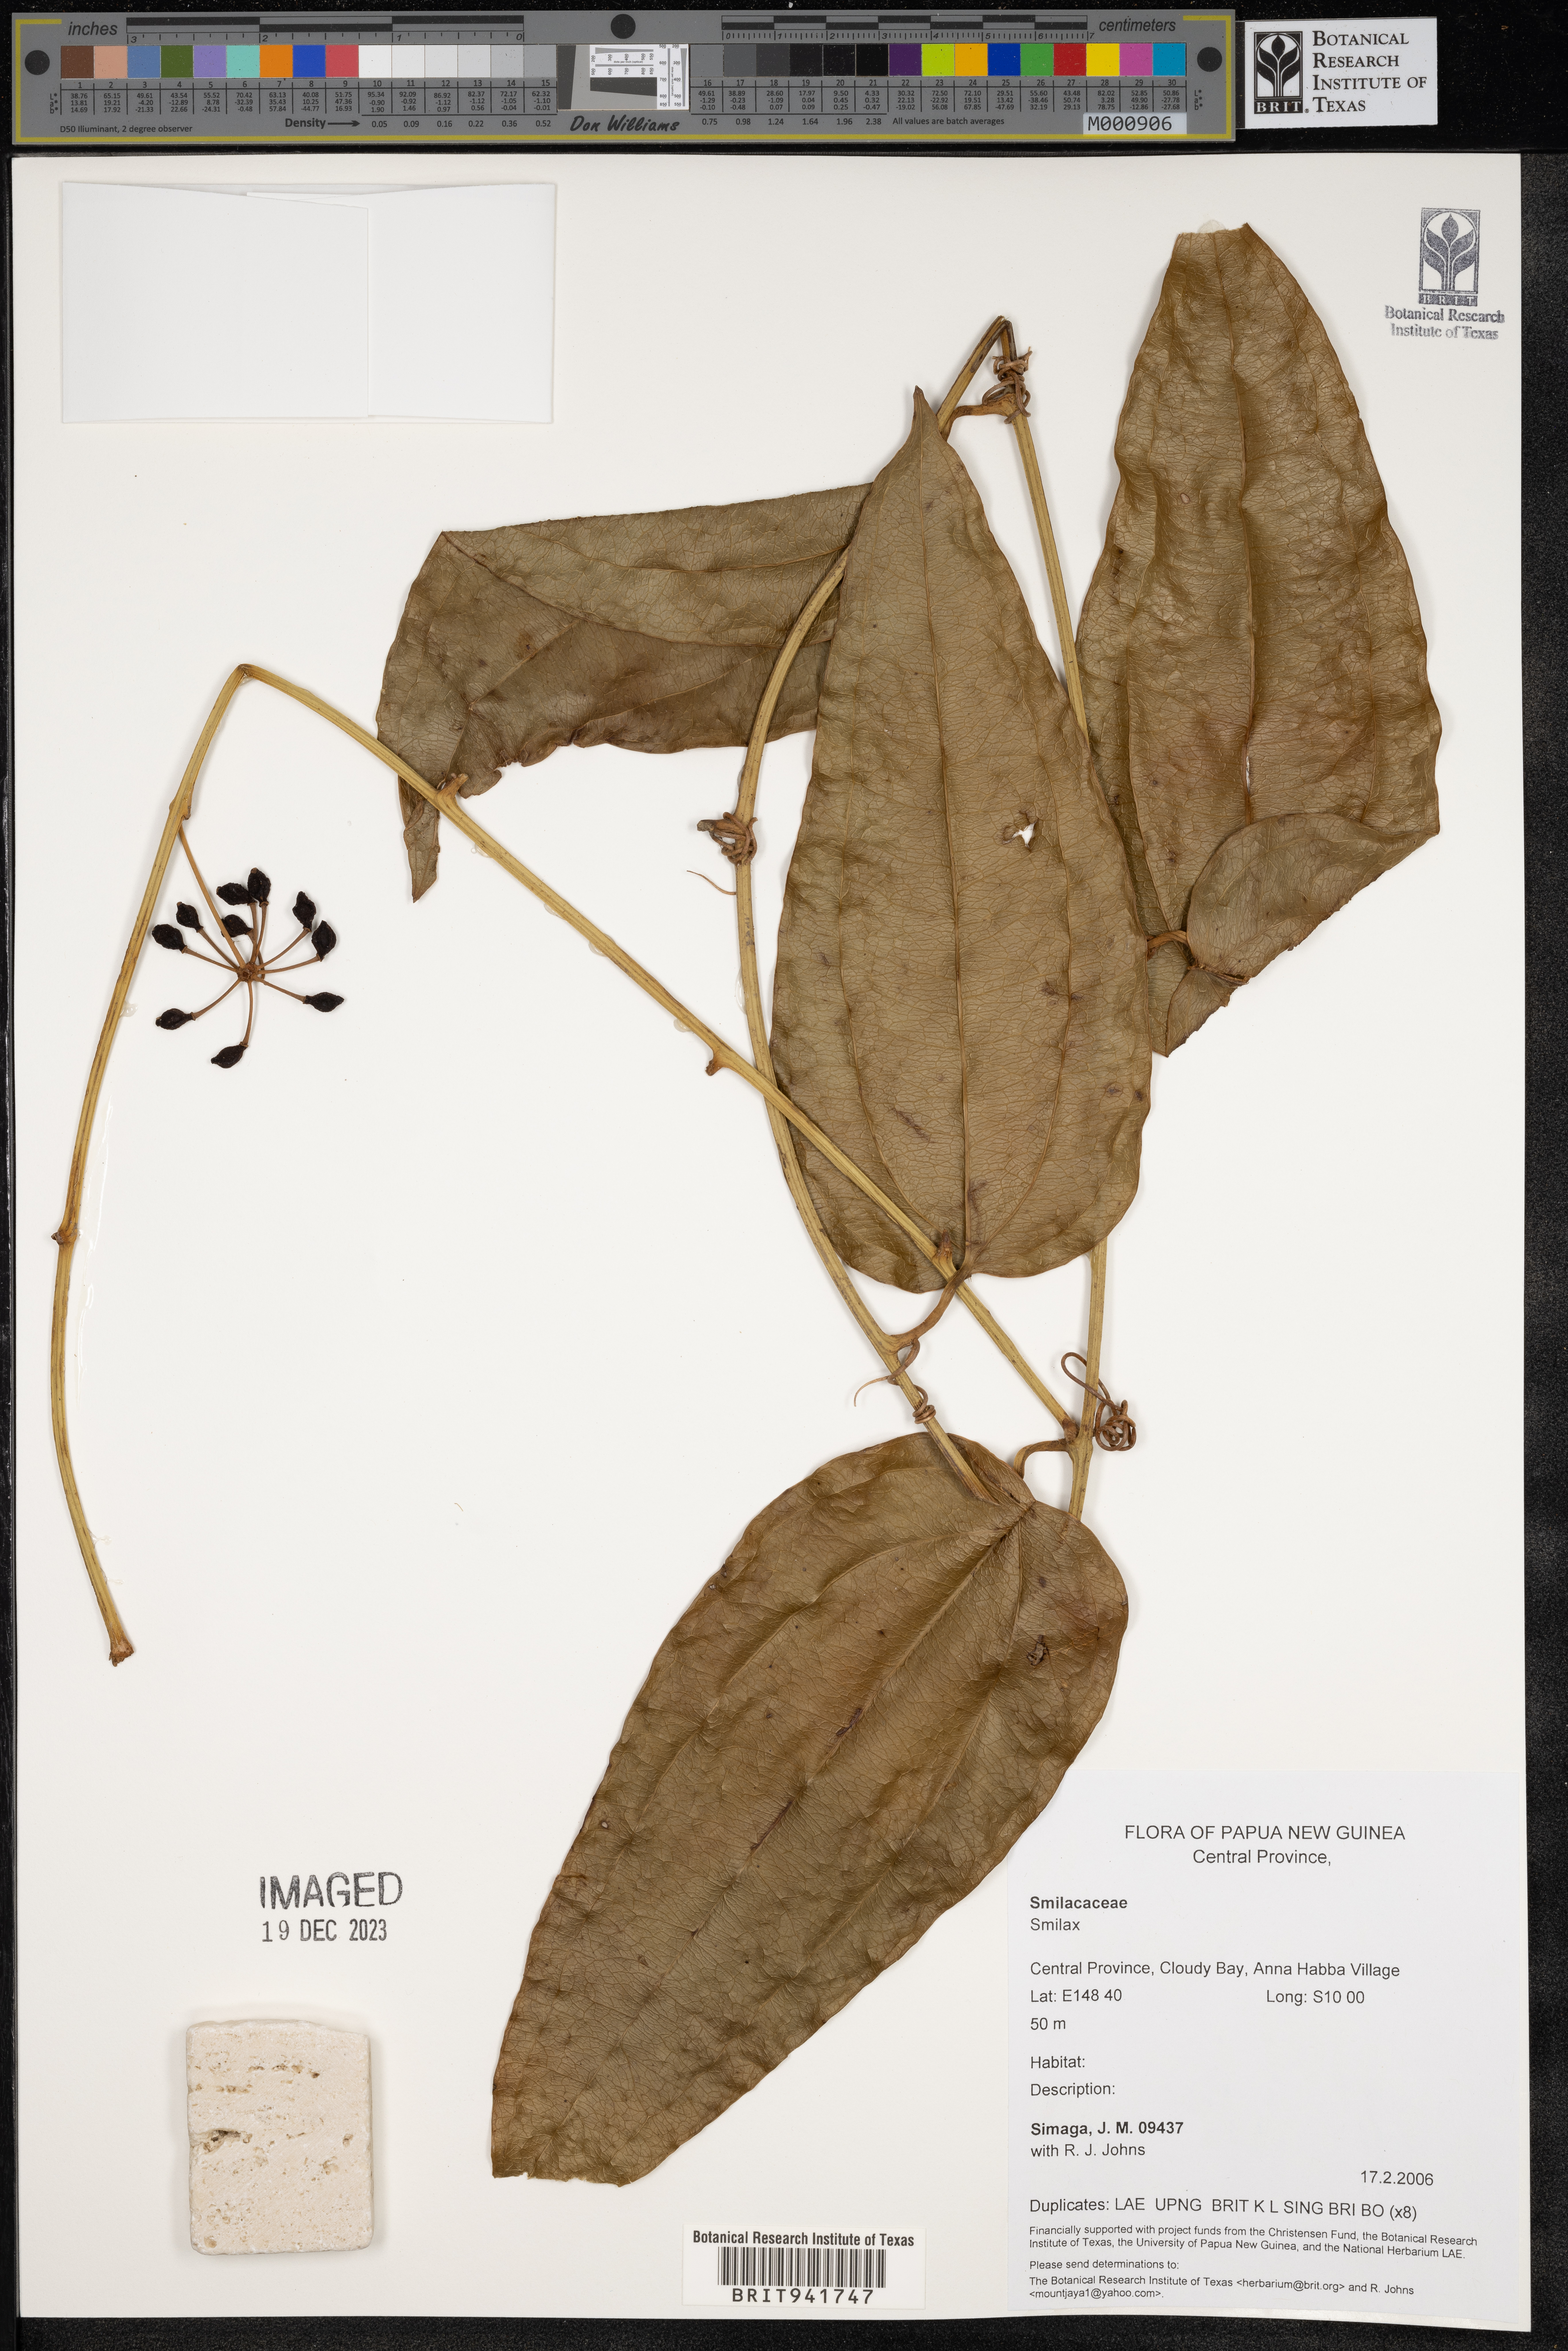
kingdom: Plantae
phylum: Tracheophyta
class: Liliopsida
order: Liliales
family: Smilacaceae
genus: Smilax
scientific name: Smilax
